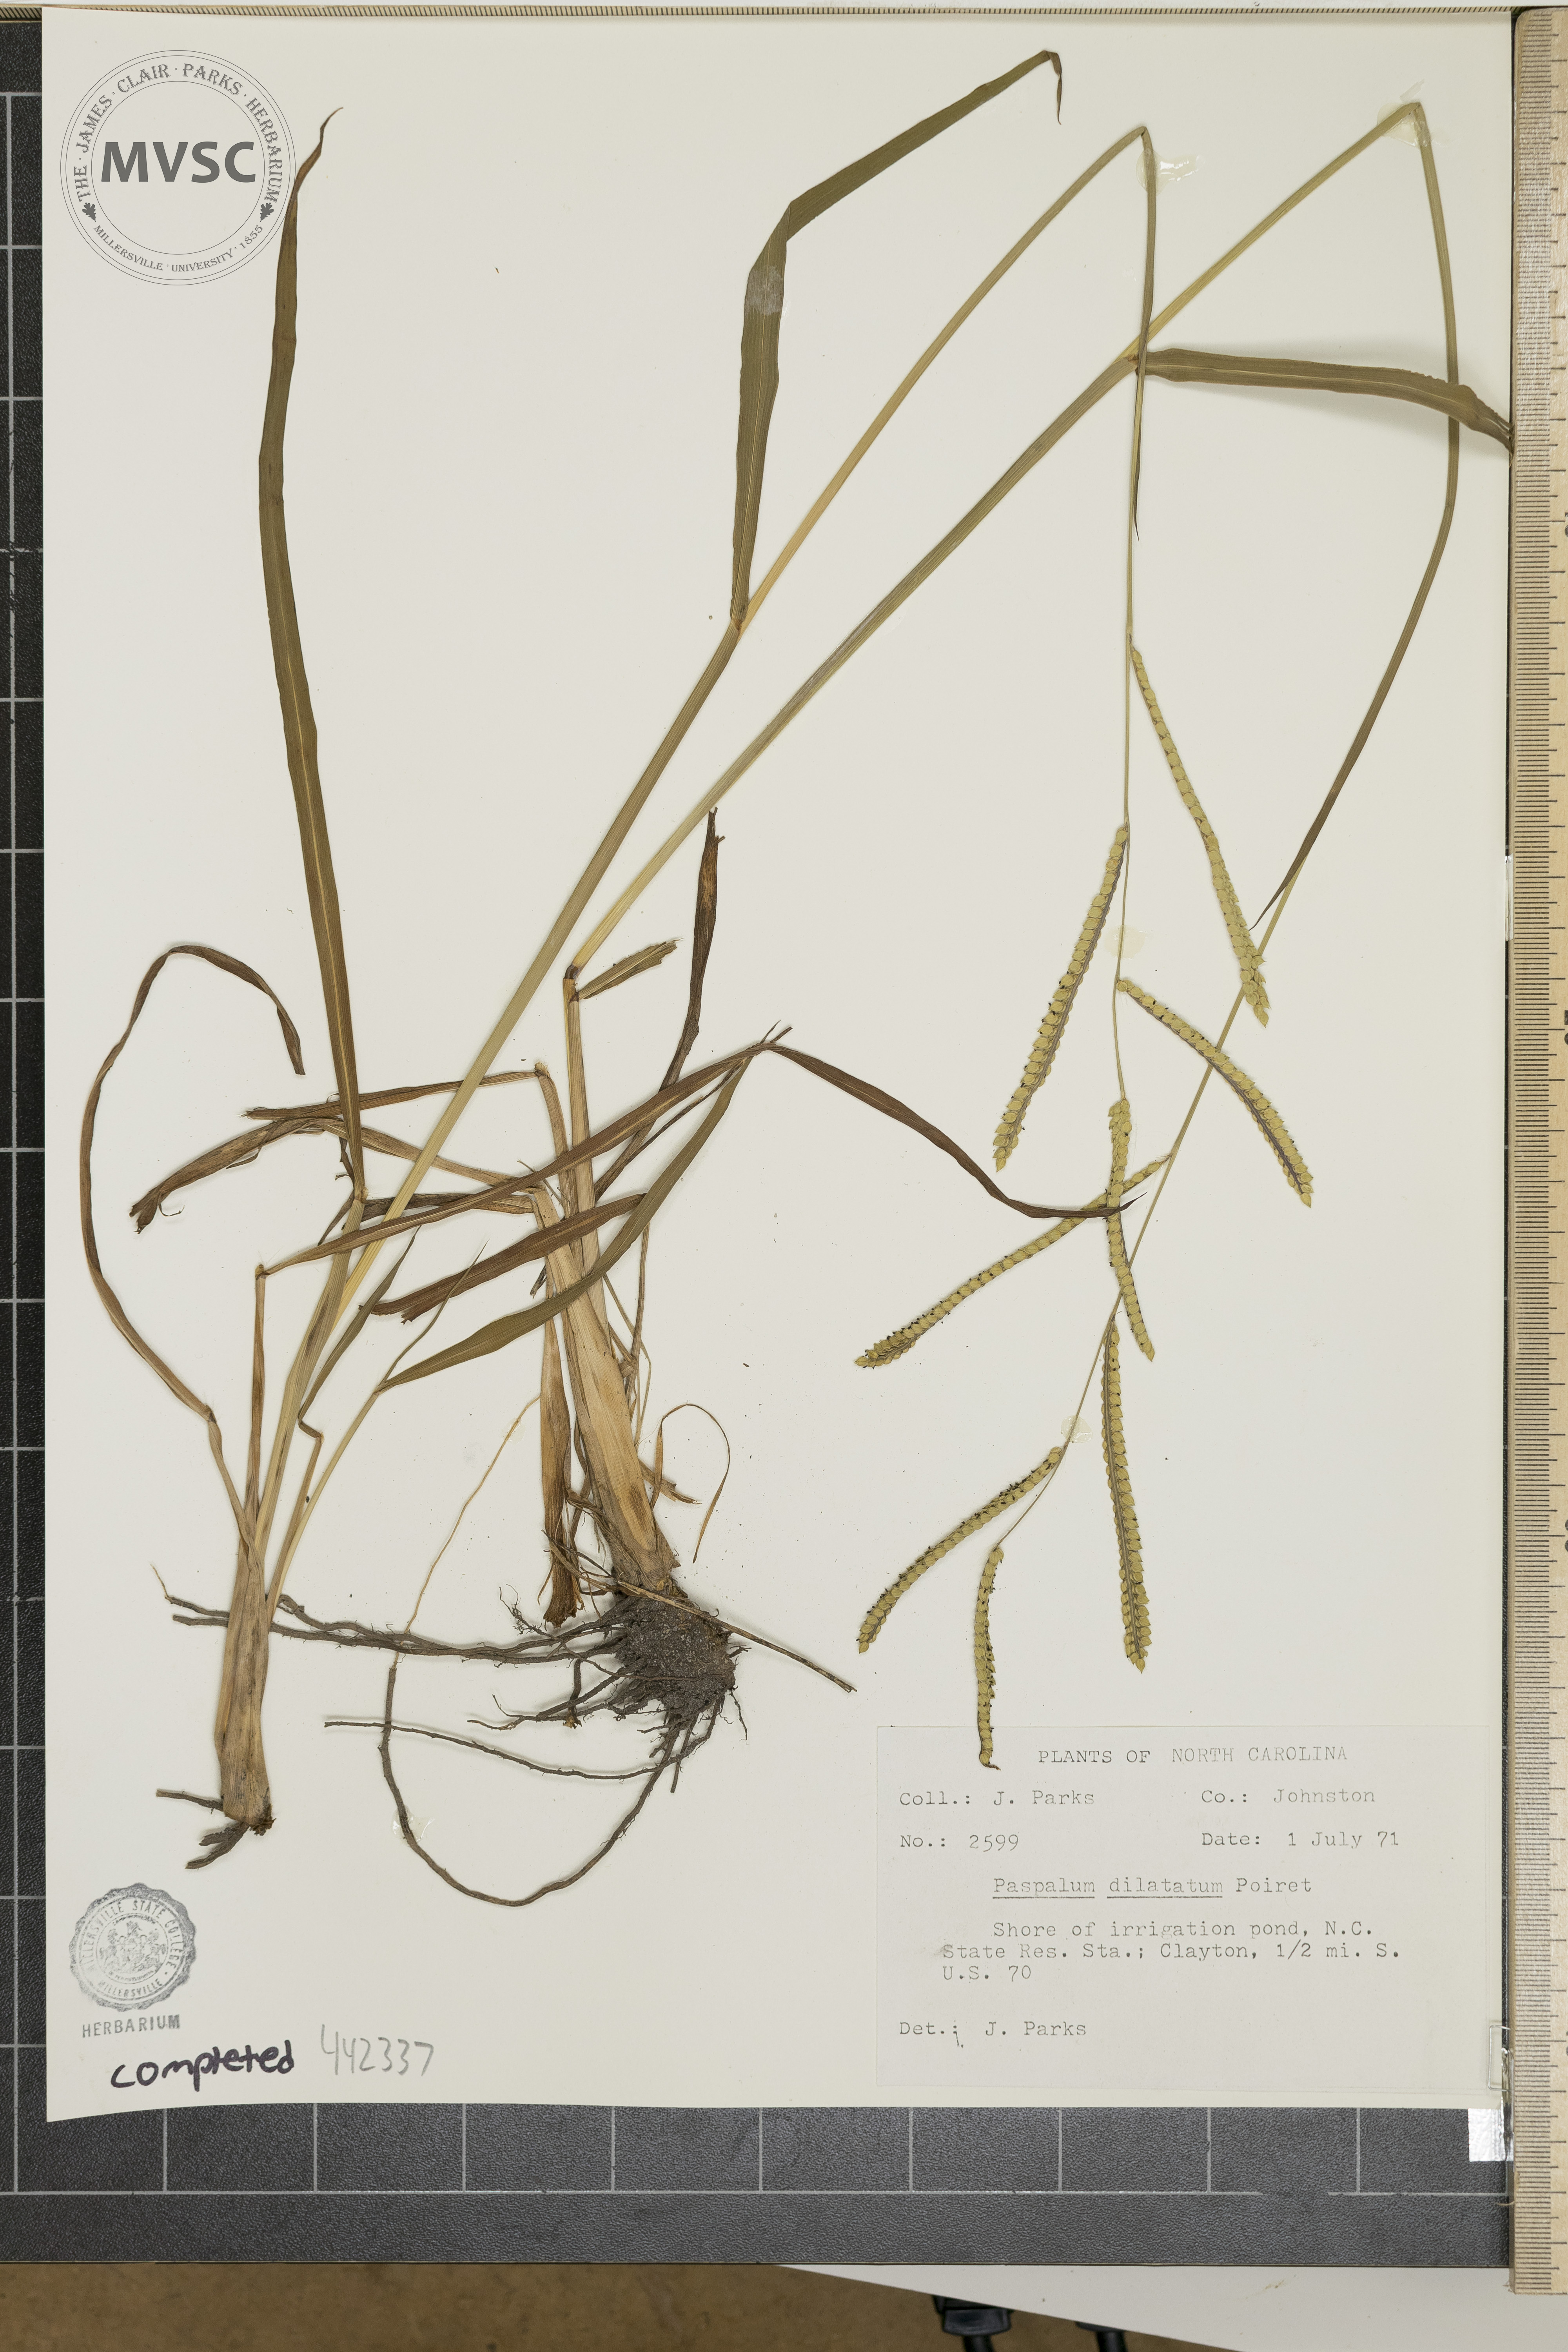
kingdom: Plantae
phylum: Tracheophyta
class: Liliopsida
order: Poales
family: Poaceae
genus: Paspalum
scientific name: Paspalum dilatatum
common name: Dallisgrass
